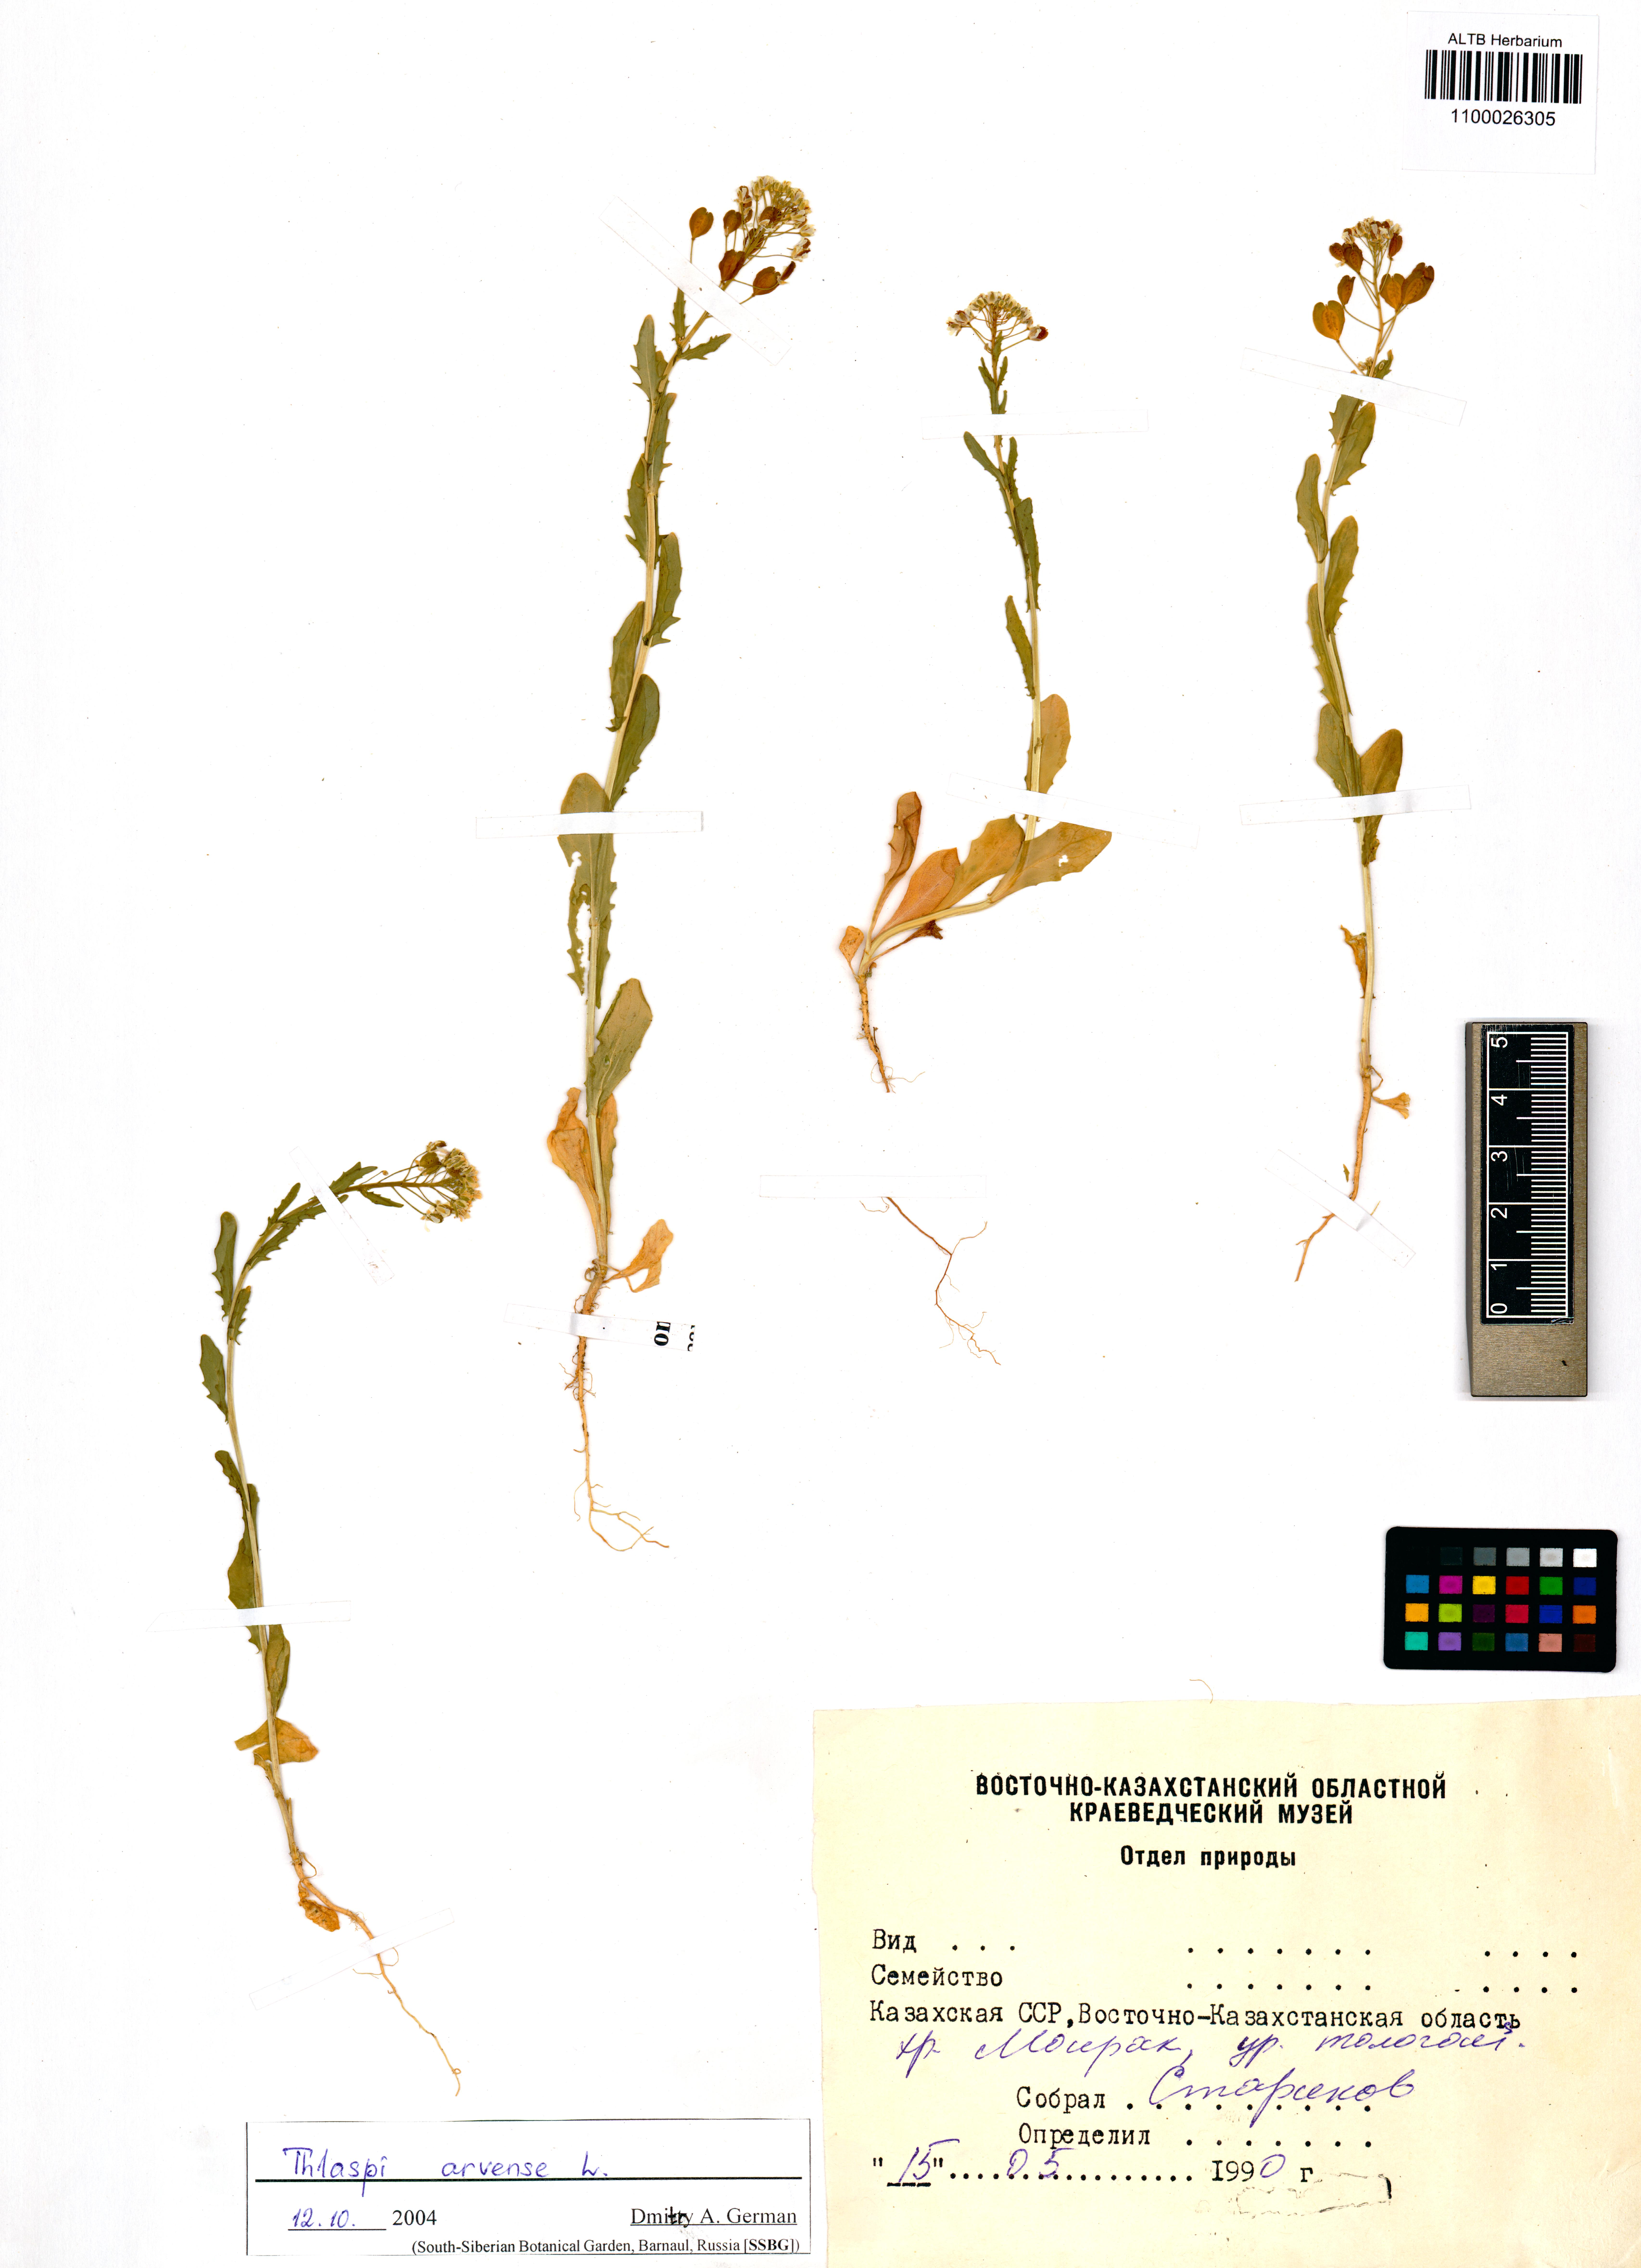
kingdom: Plantae
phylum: Tracheophyta
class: Magnoliopsida
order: Brassicales
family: Brassicaceae
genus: Thlaspi
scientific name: Thlaspi arvense
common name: Field pennycress
